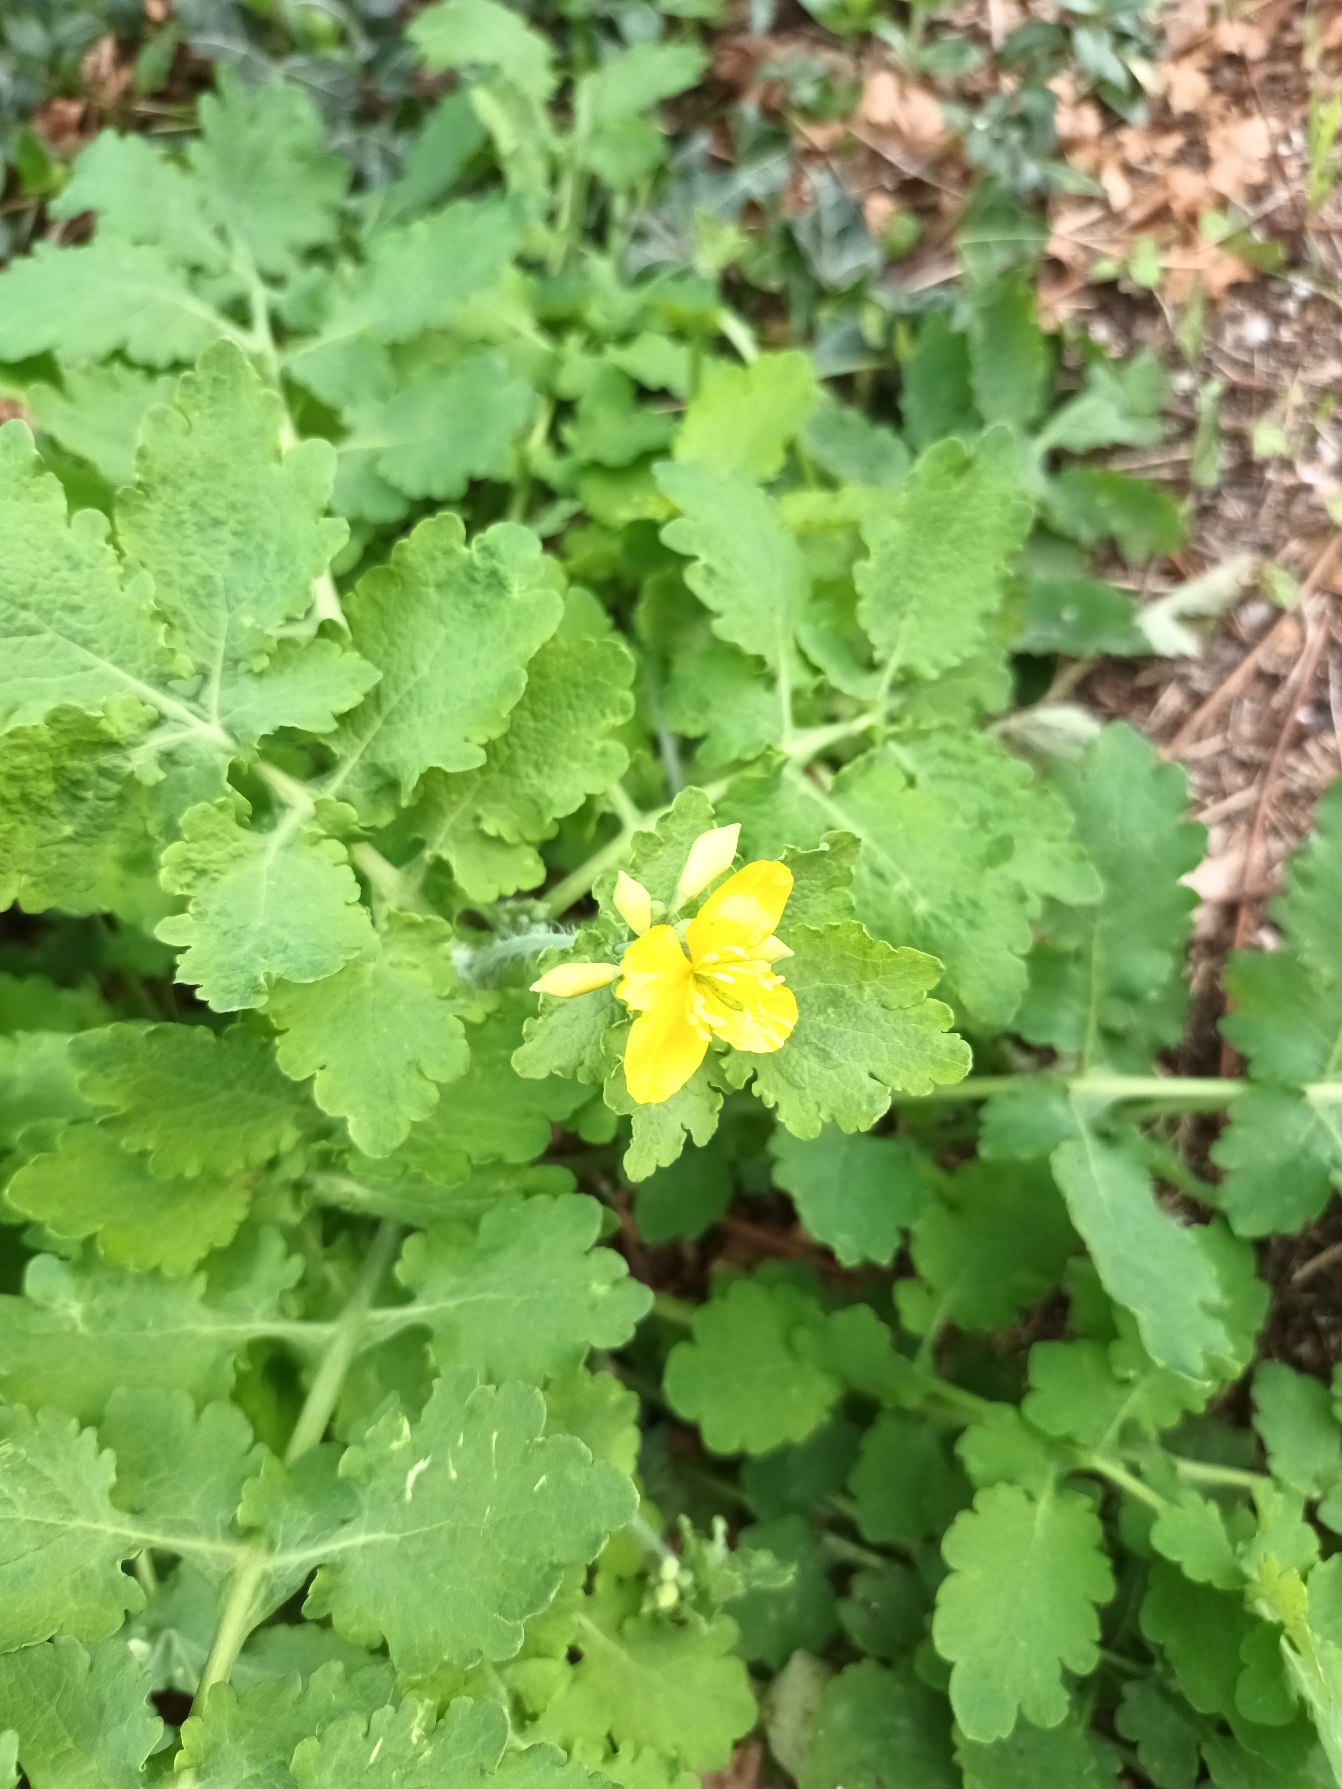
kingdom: Plantae
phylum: Tracheophyta
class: Magnoliopsida
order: Ranunculales
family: Papaveraceae
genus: Chelidonium
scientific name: Chelidonium majus
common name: Svaleurt
